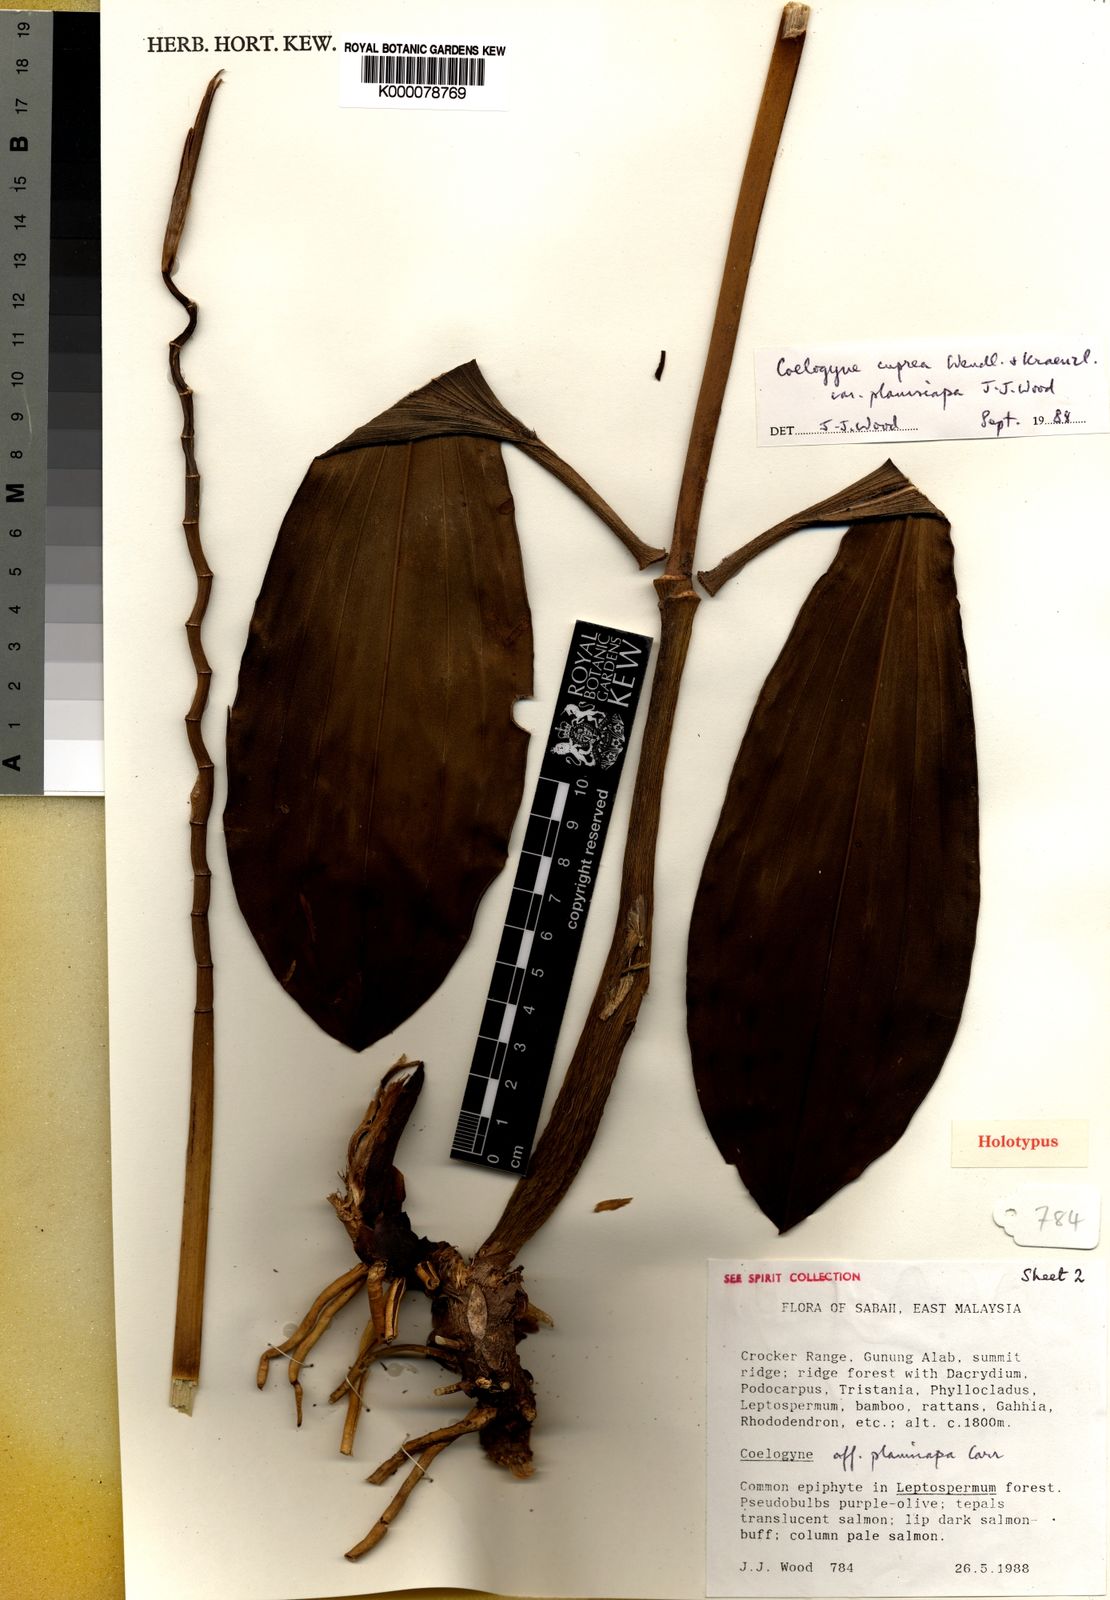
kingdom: Plantae
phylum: Tracheophyta
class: Liliopsida
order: Asparagales
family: Orchidaceae
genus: Coelogyne
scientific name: Coelogyne cuprea
